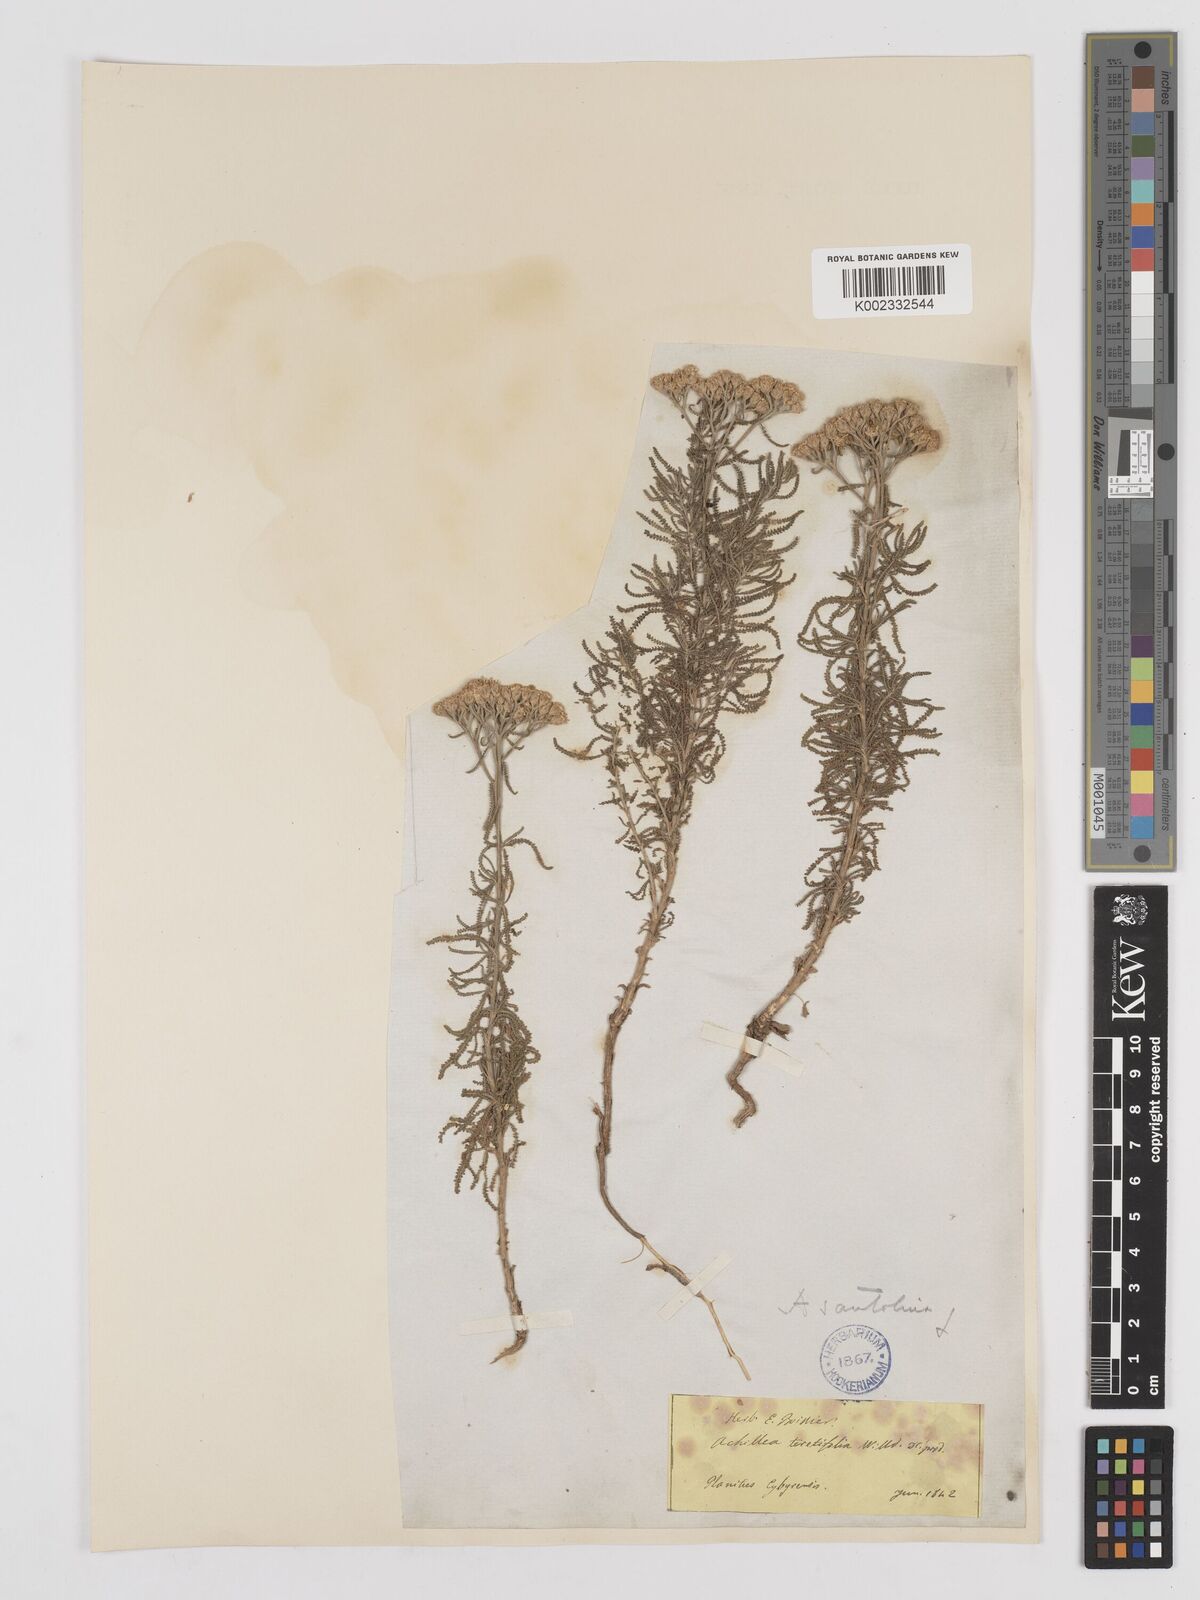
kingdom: Plantae
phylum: Tracheophyta
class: Magnoliopsida
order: Asterales
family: Asteraceae
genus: Achillea
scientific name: Achillea tenuifolia
